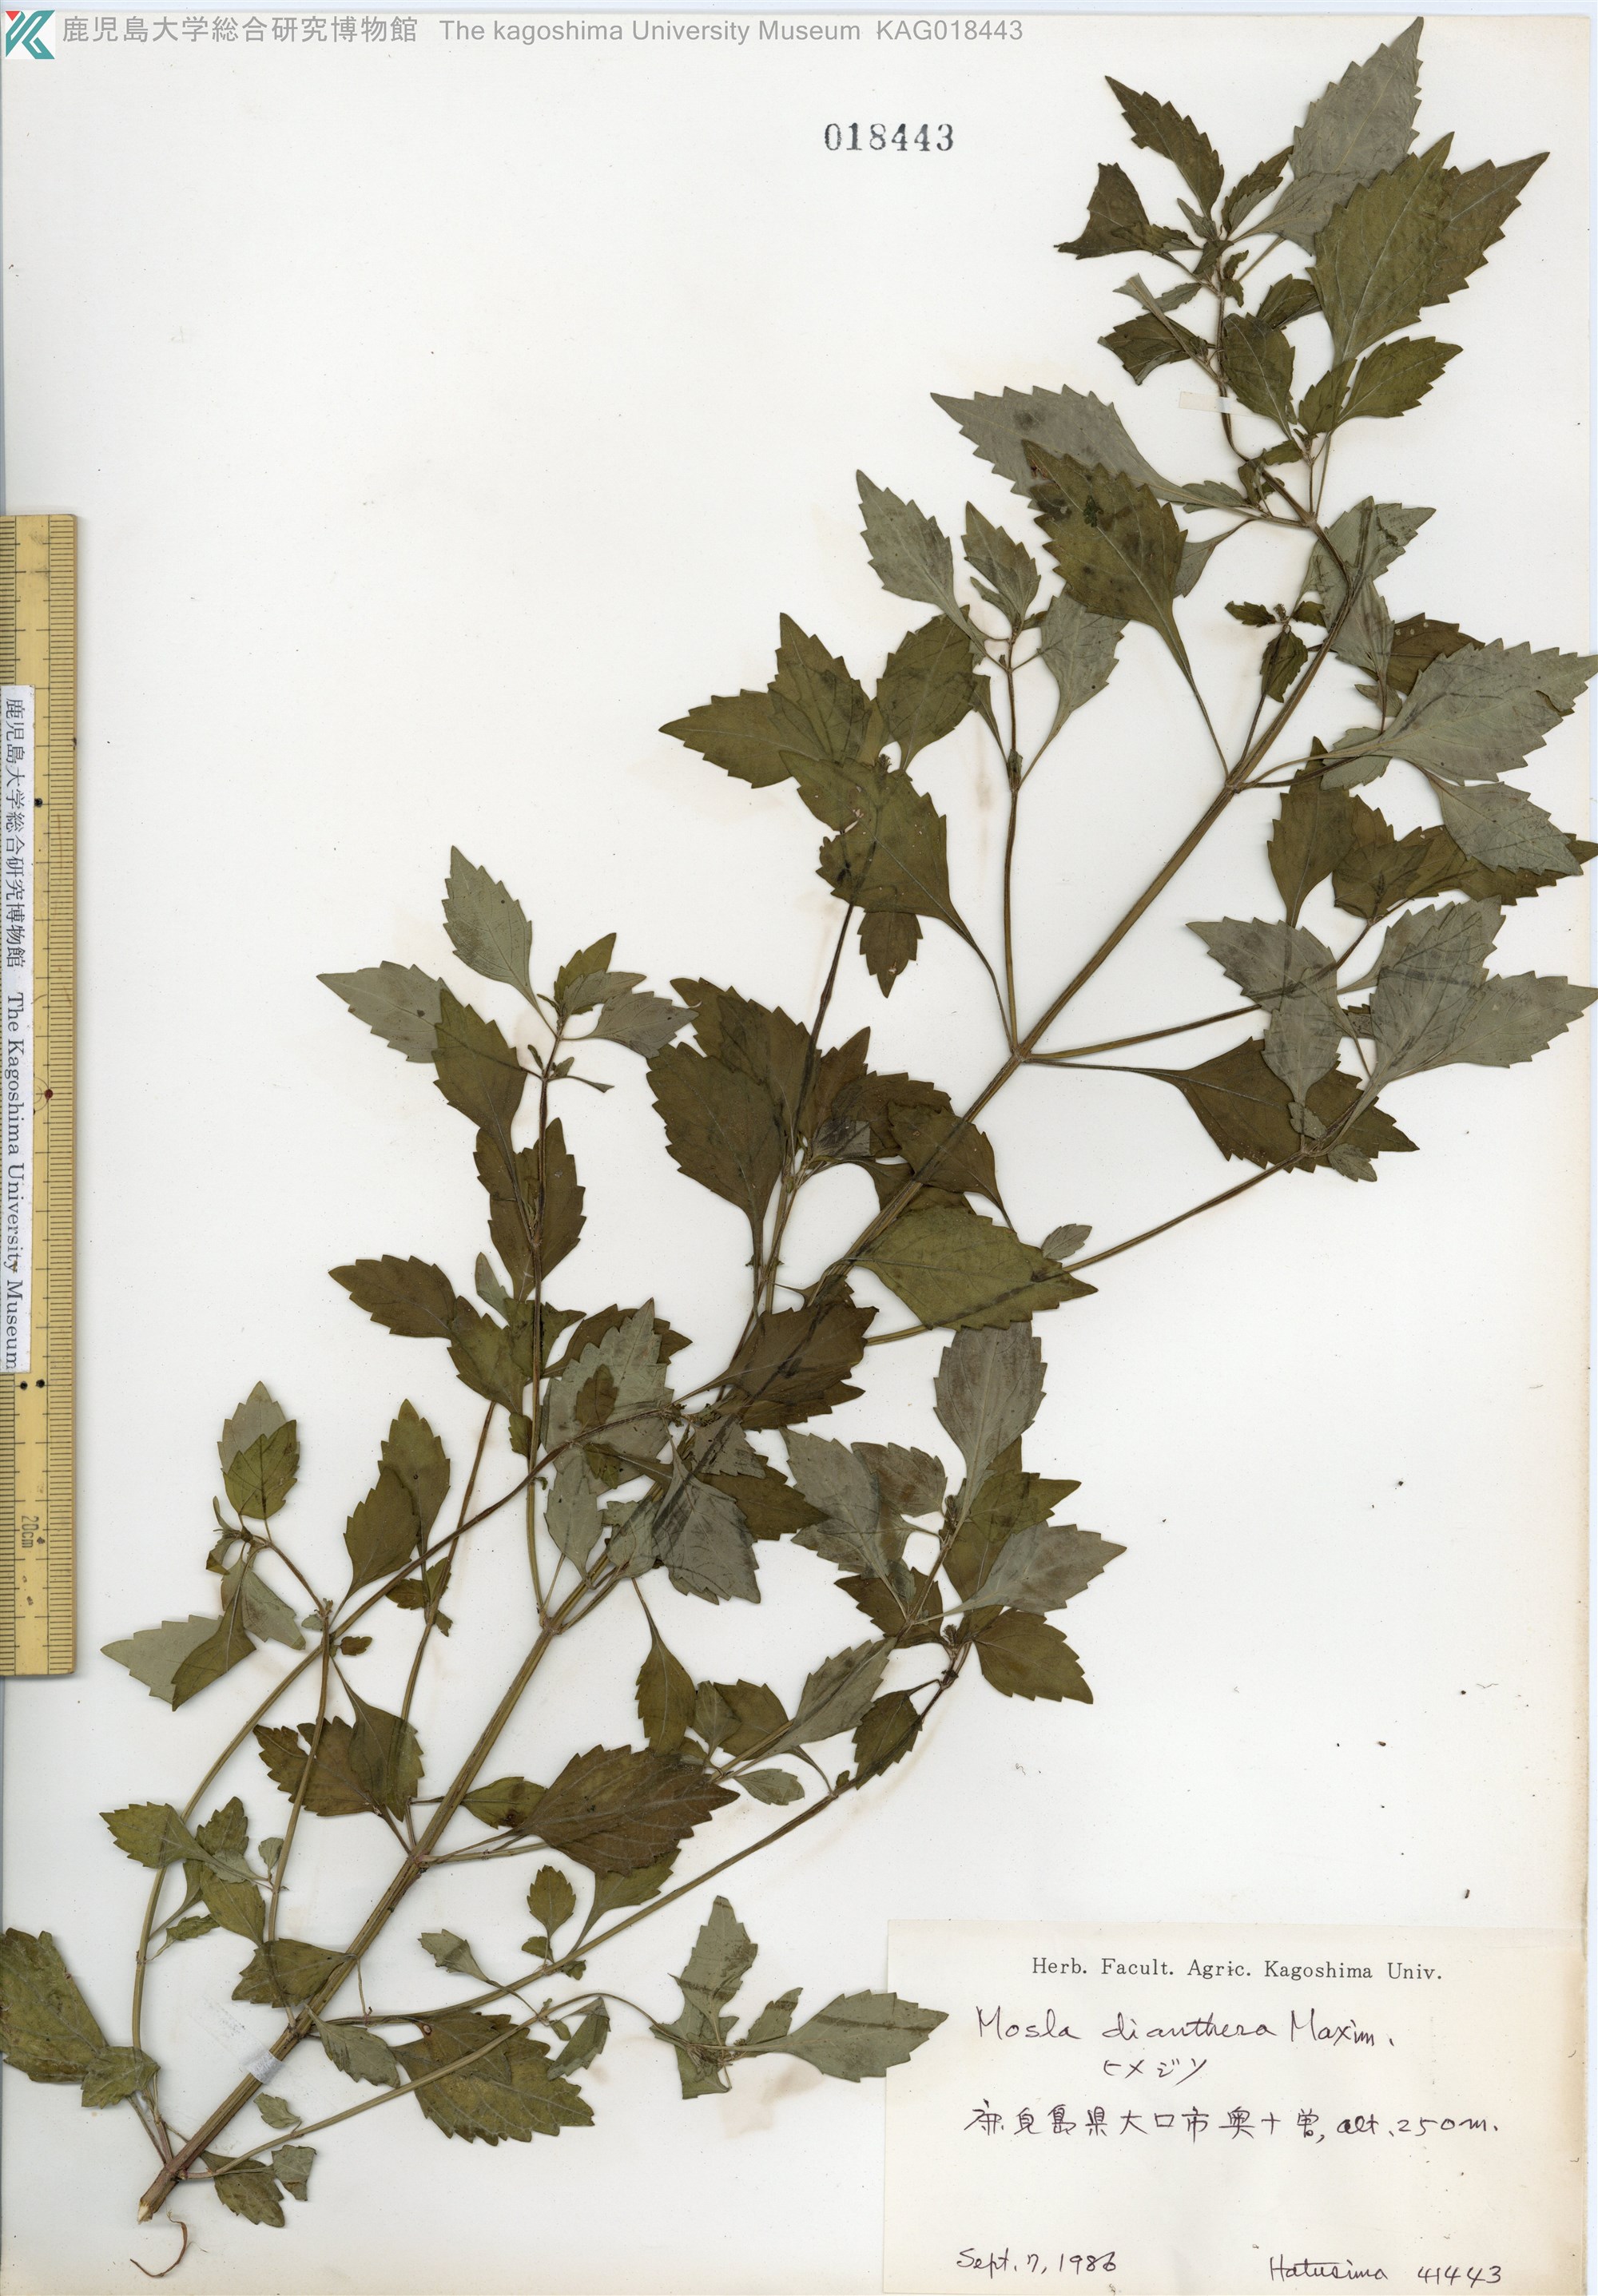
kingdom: Plantae
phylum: Tracheophyta
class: Magnoliopsida
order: Lamiales
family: Lamiaceae
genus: Mosla
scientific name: Mosla dianthera
